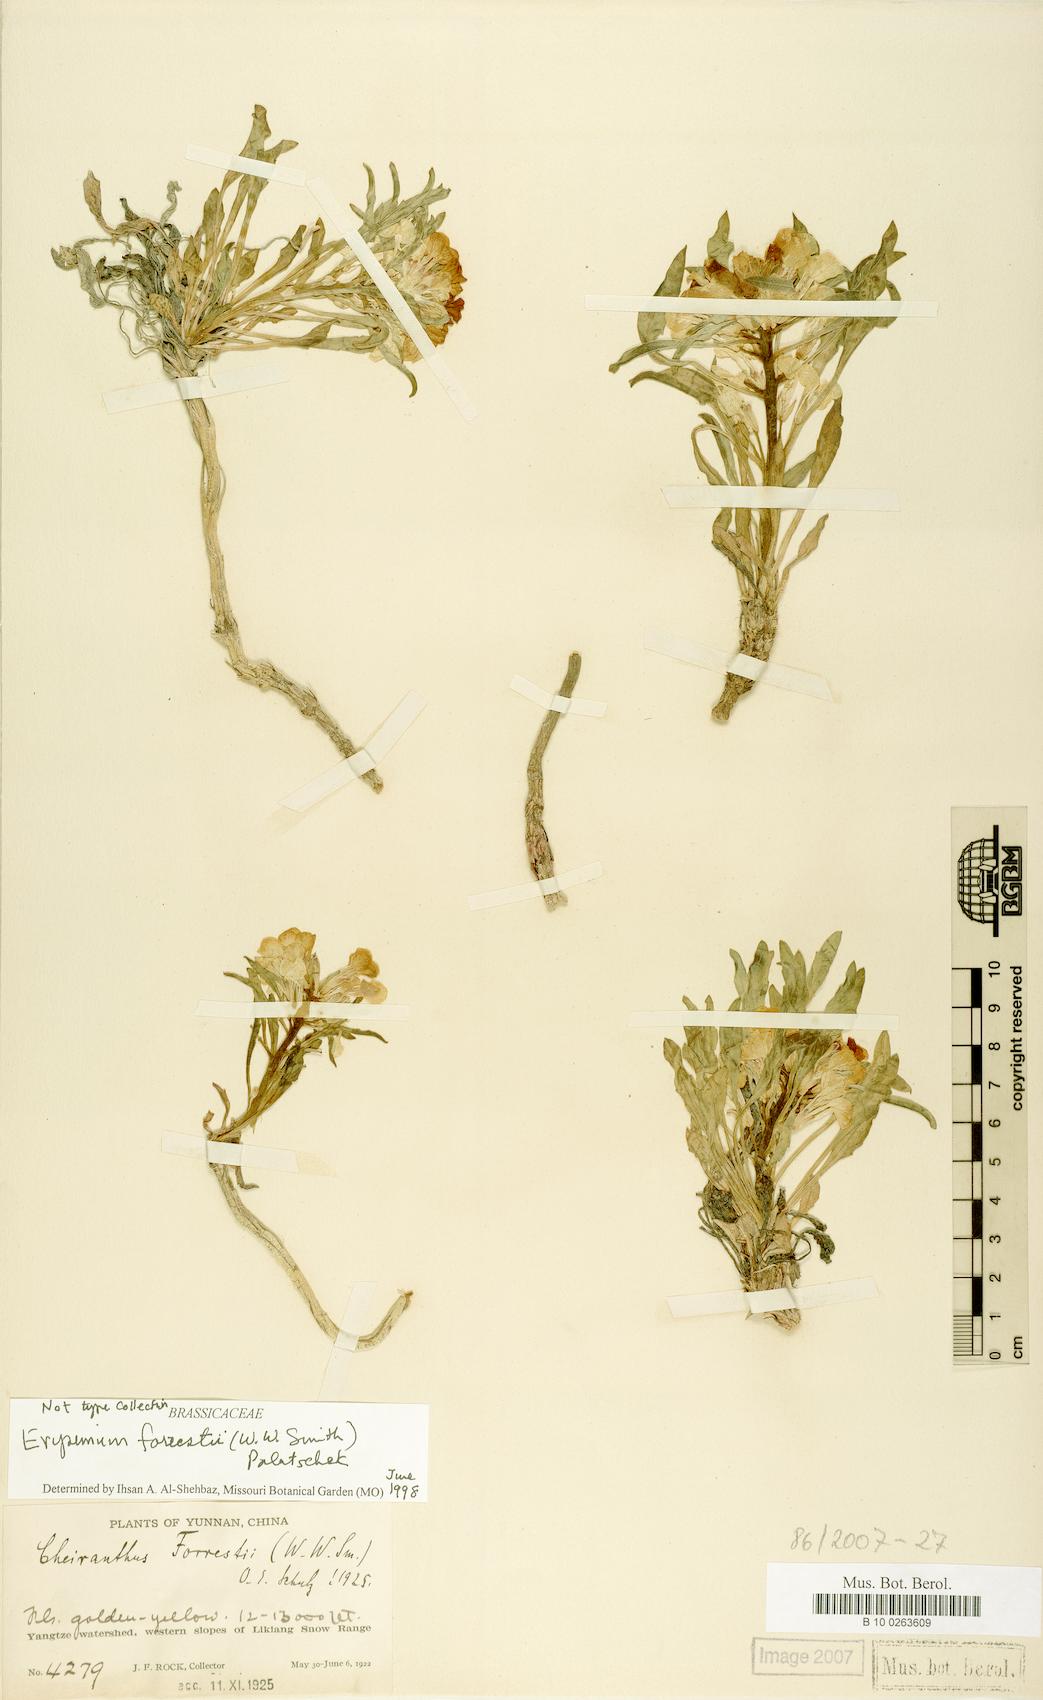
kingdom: Plantae
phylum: Tracheophyta
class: Magnoliopsida
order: Brassicales
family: Brassicaceae
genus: Erysimum
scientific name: Erysimum forrestii
